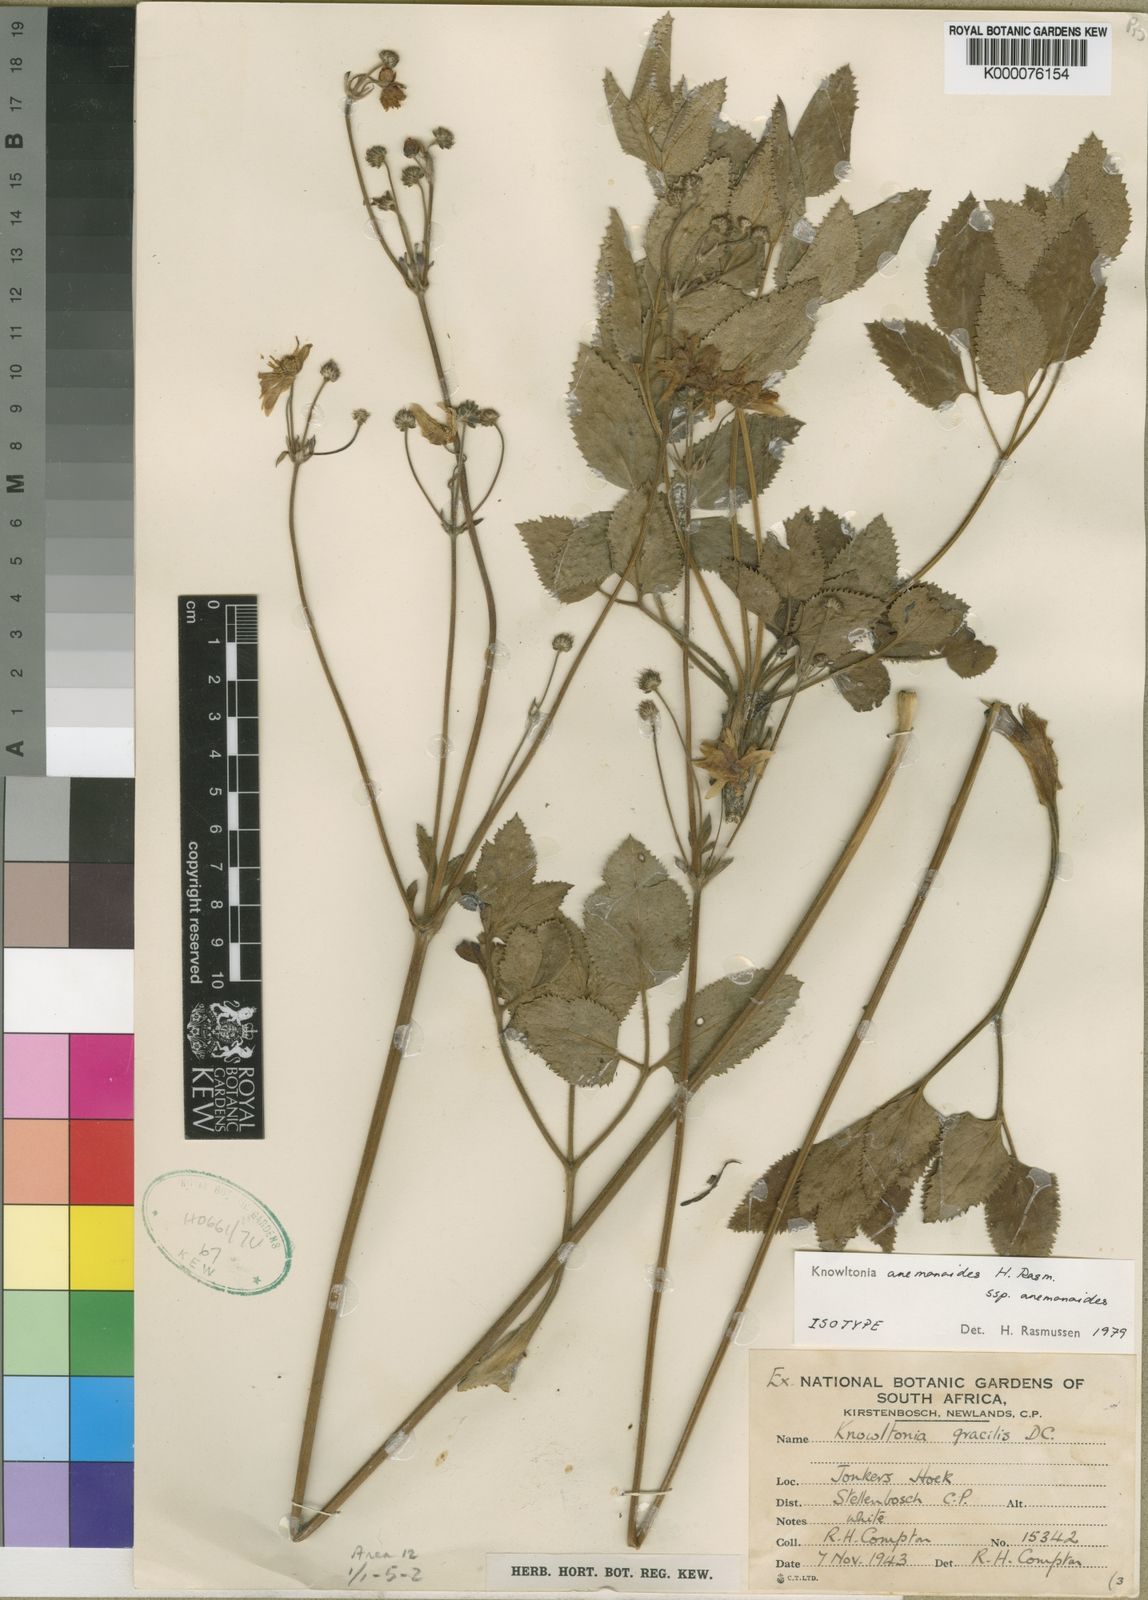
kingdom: Plantae
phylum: Tracheophyta
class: Magnoliopsida
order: Ranunculales
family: Ranunculaceae
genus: Knowltonia
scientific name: Knowltonia anemonoides
